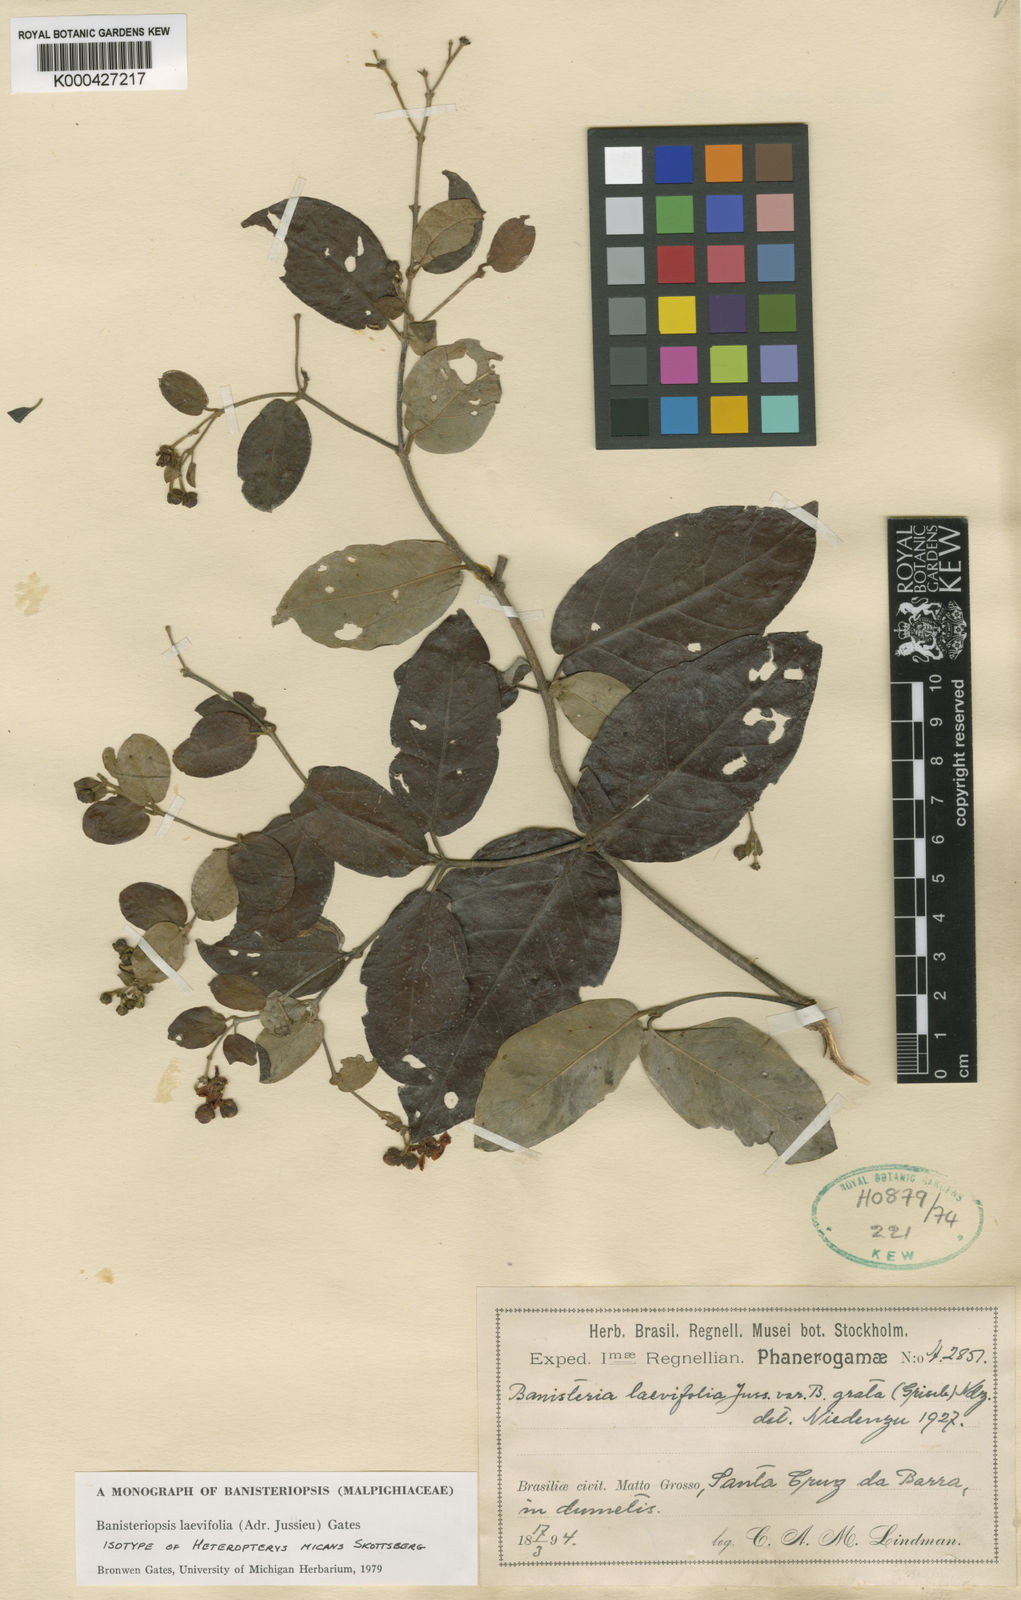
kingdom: Plantae
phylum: Tracheophyta
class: Magnoliopsida
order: Malpighiales
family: Malpighiaceae
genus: Banisteriopsis
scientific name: Banisteriopsis laevifolia
